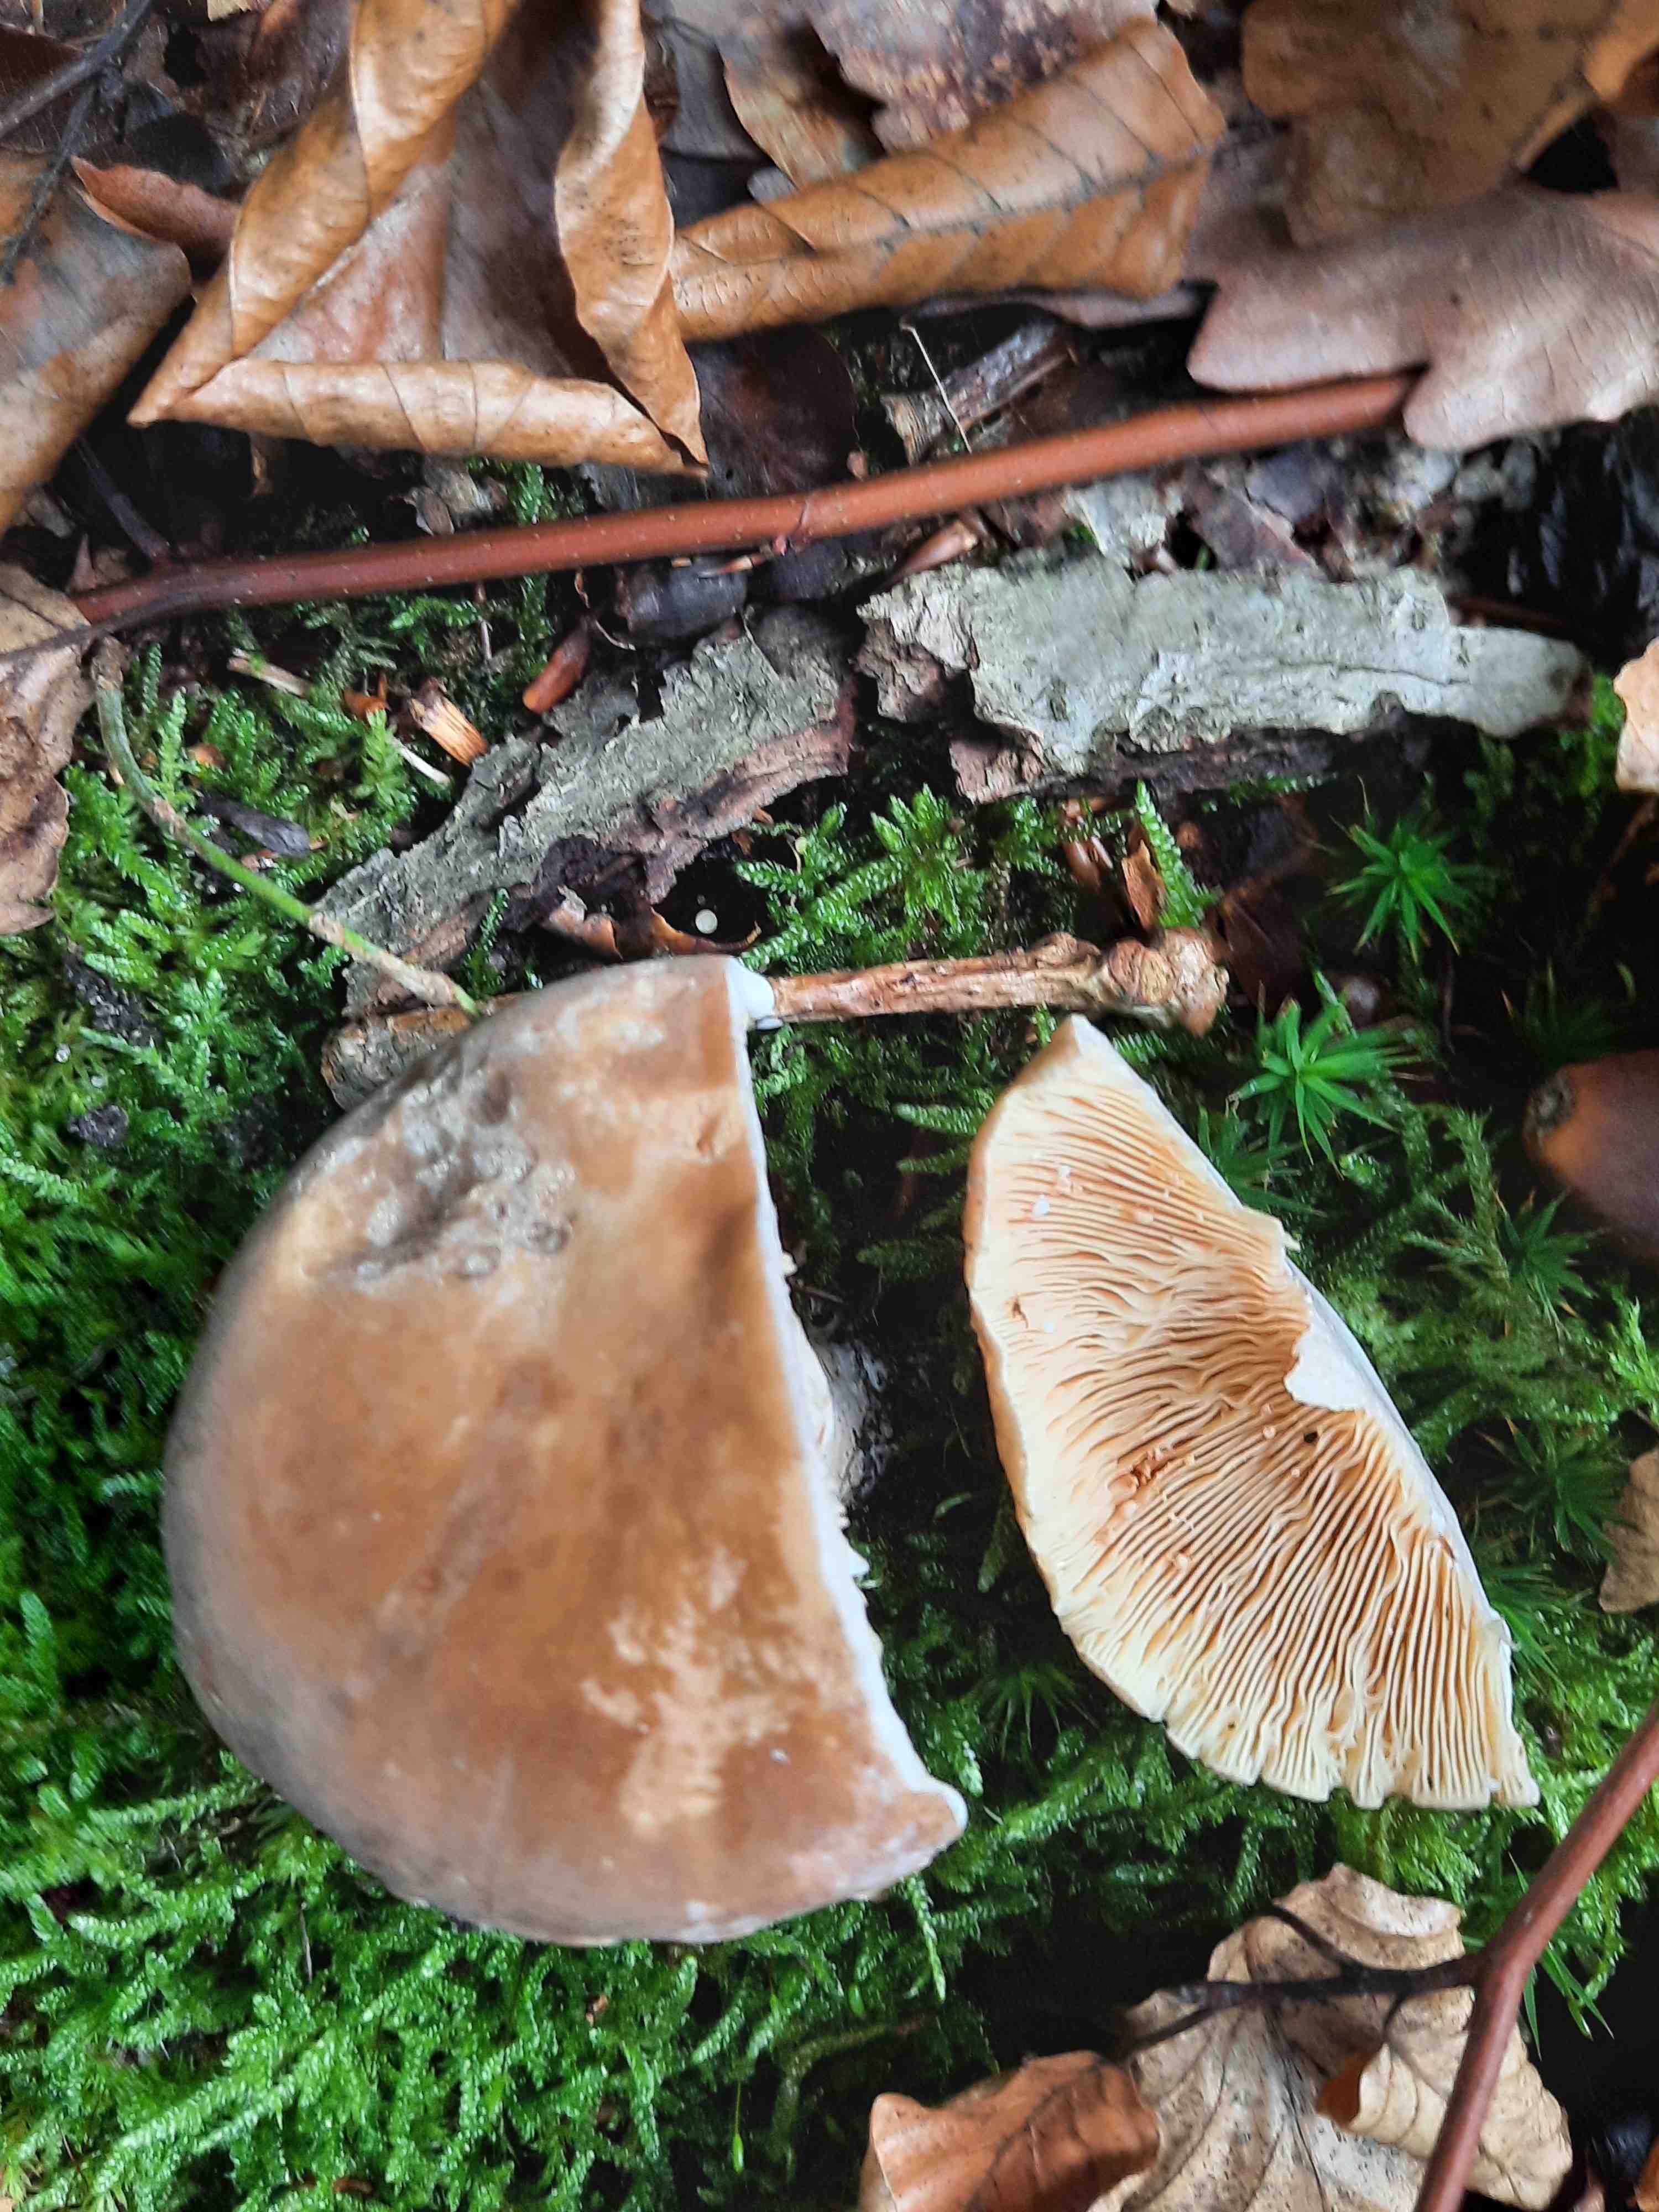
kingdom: Fungi
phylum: Basidiomycota
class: Agaricomycetes
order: Russulales
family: Russulaceae
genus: Lactarius
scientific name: Lactarius
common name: mælkehat
